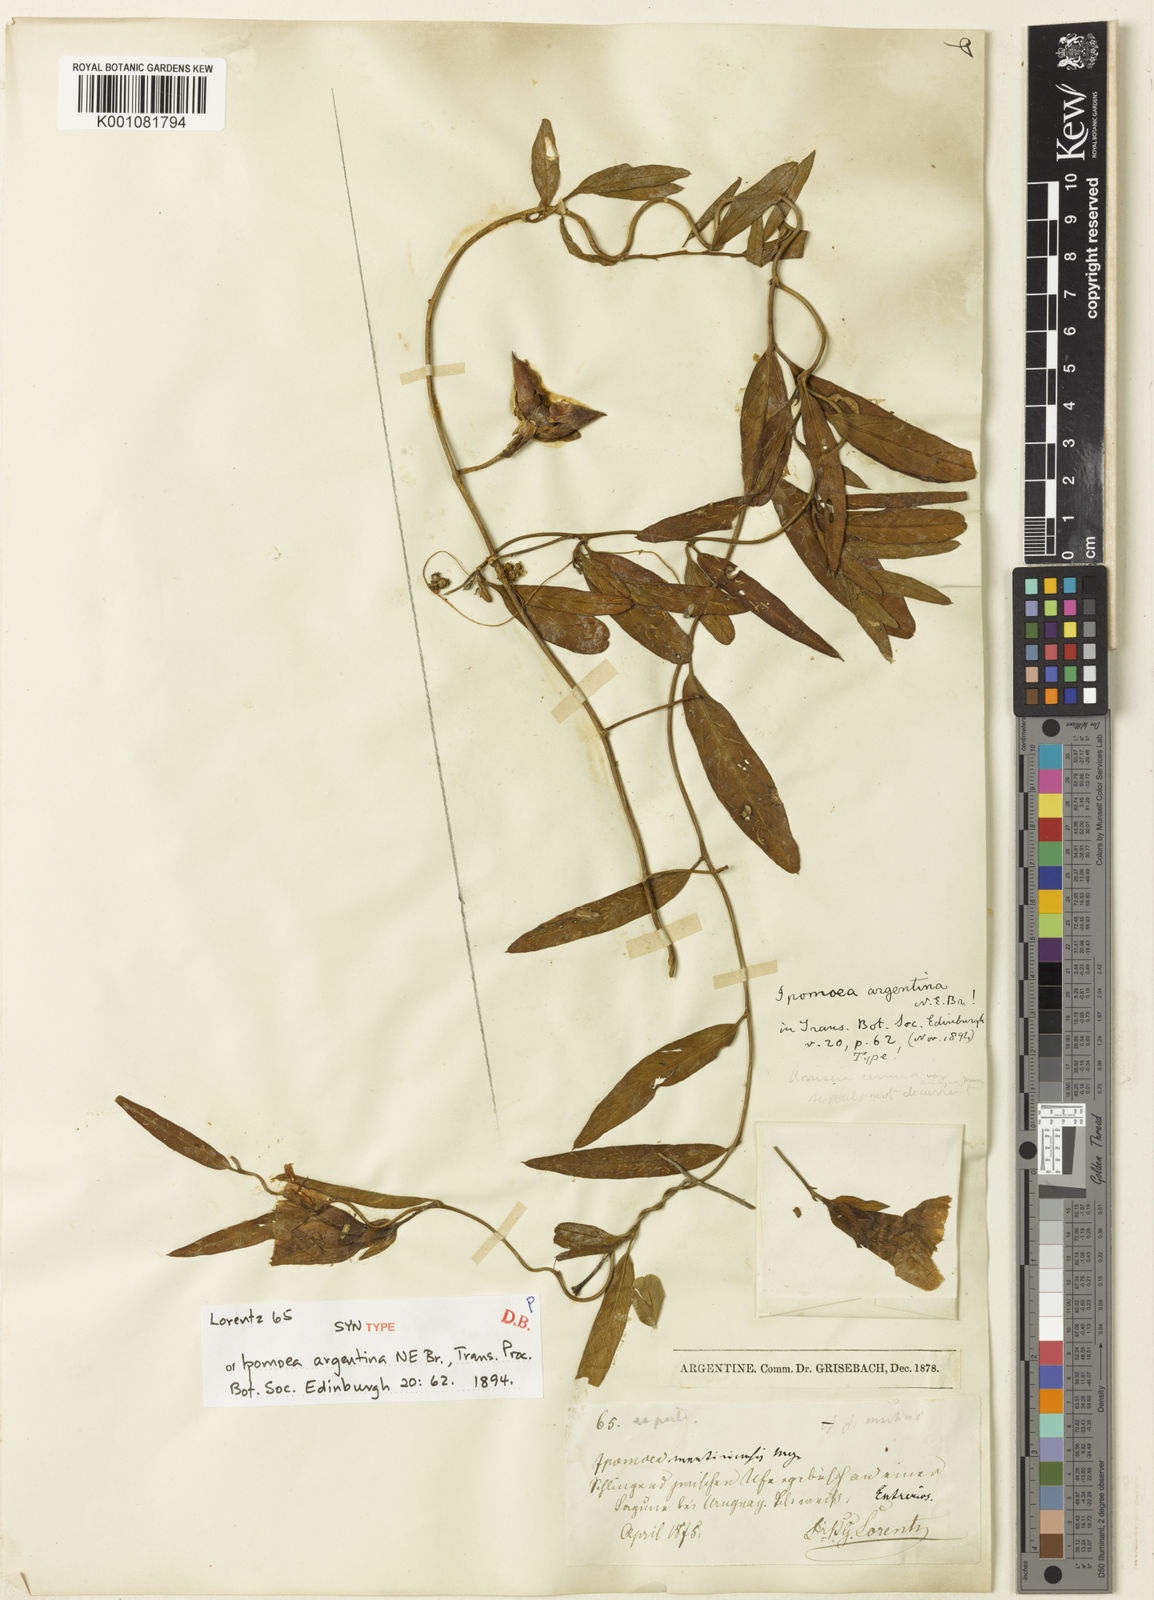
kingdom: Plantae
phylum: Tracheophyta
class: Magnoliopsida
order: Solanales
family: Convolvulaceae
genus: Aniseia
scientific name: Aniseia argentina
